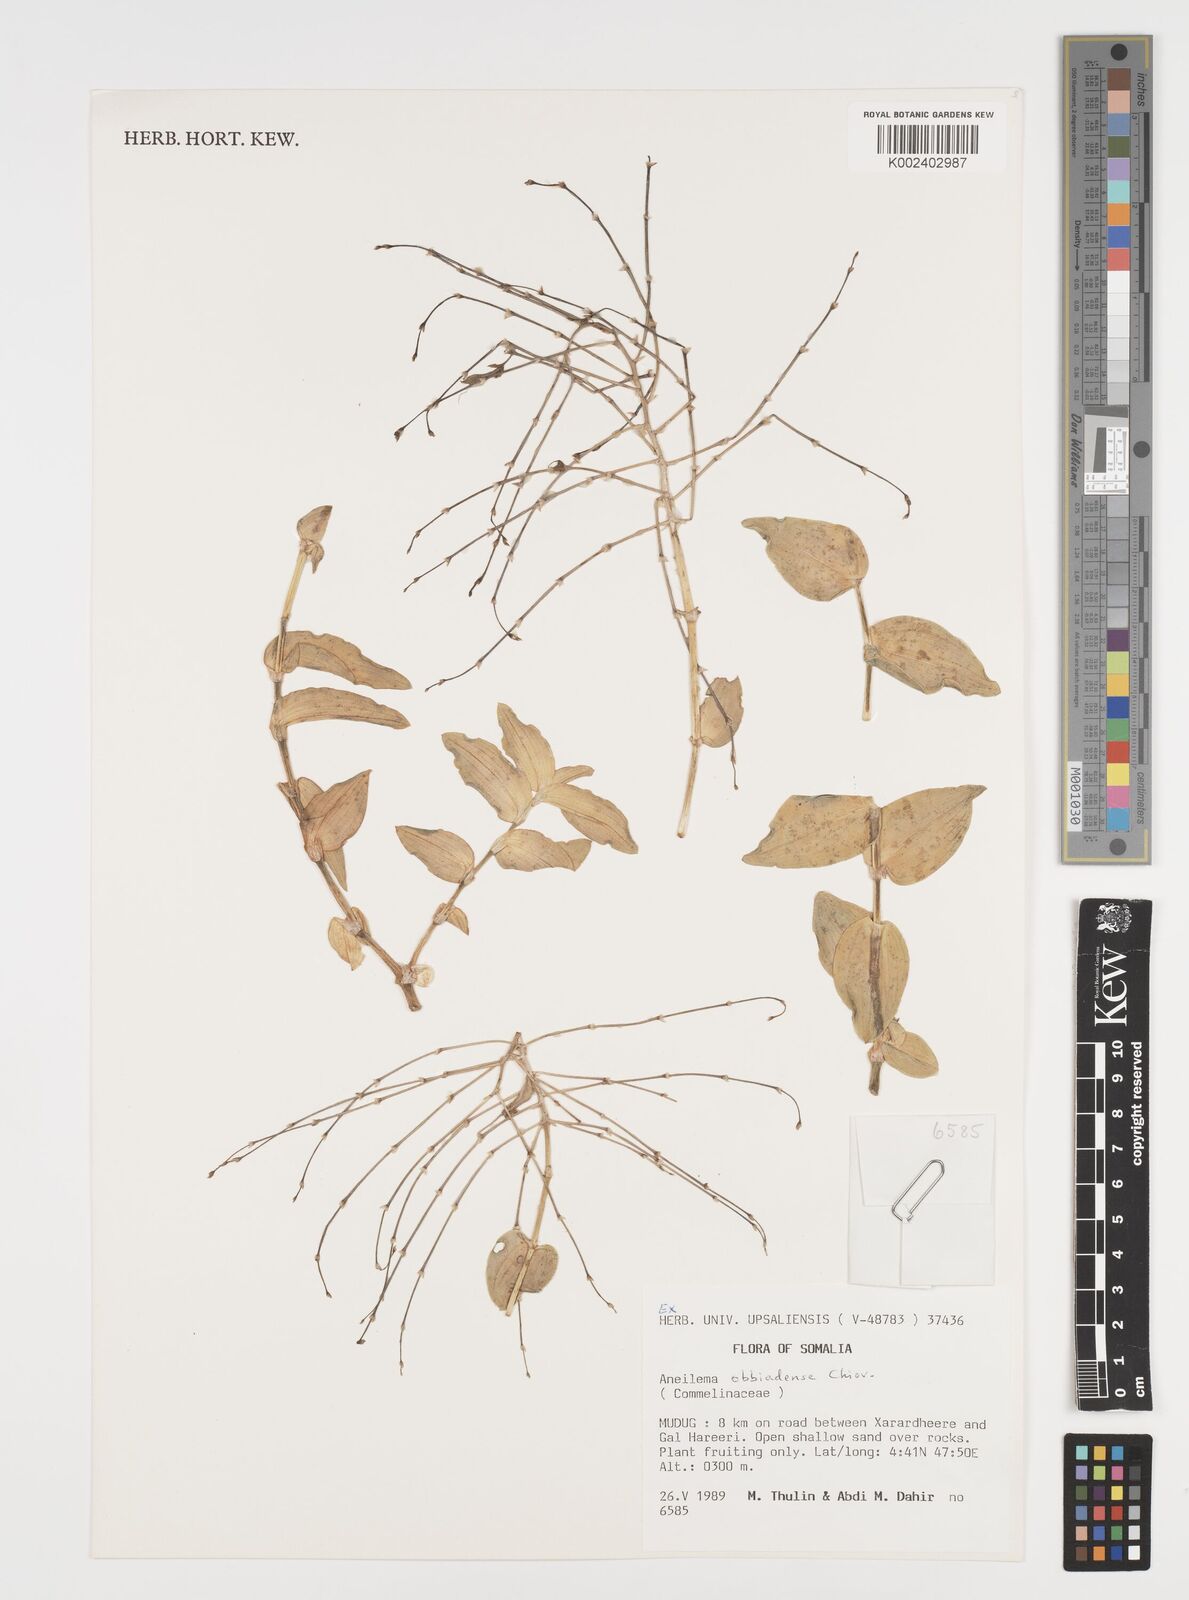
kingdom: Plantae
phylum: Tracheophyta
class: Liliopsida
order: Commelinales
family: Commelinaceae
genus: Aneilema
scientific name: Aneilema obbiadense
